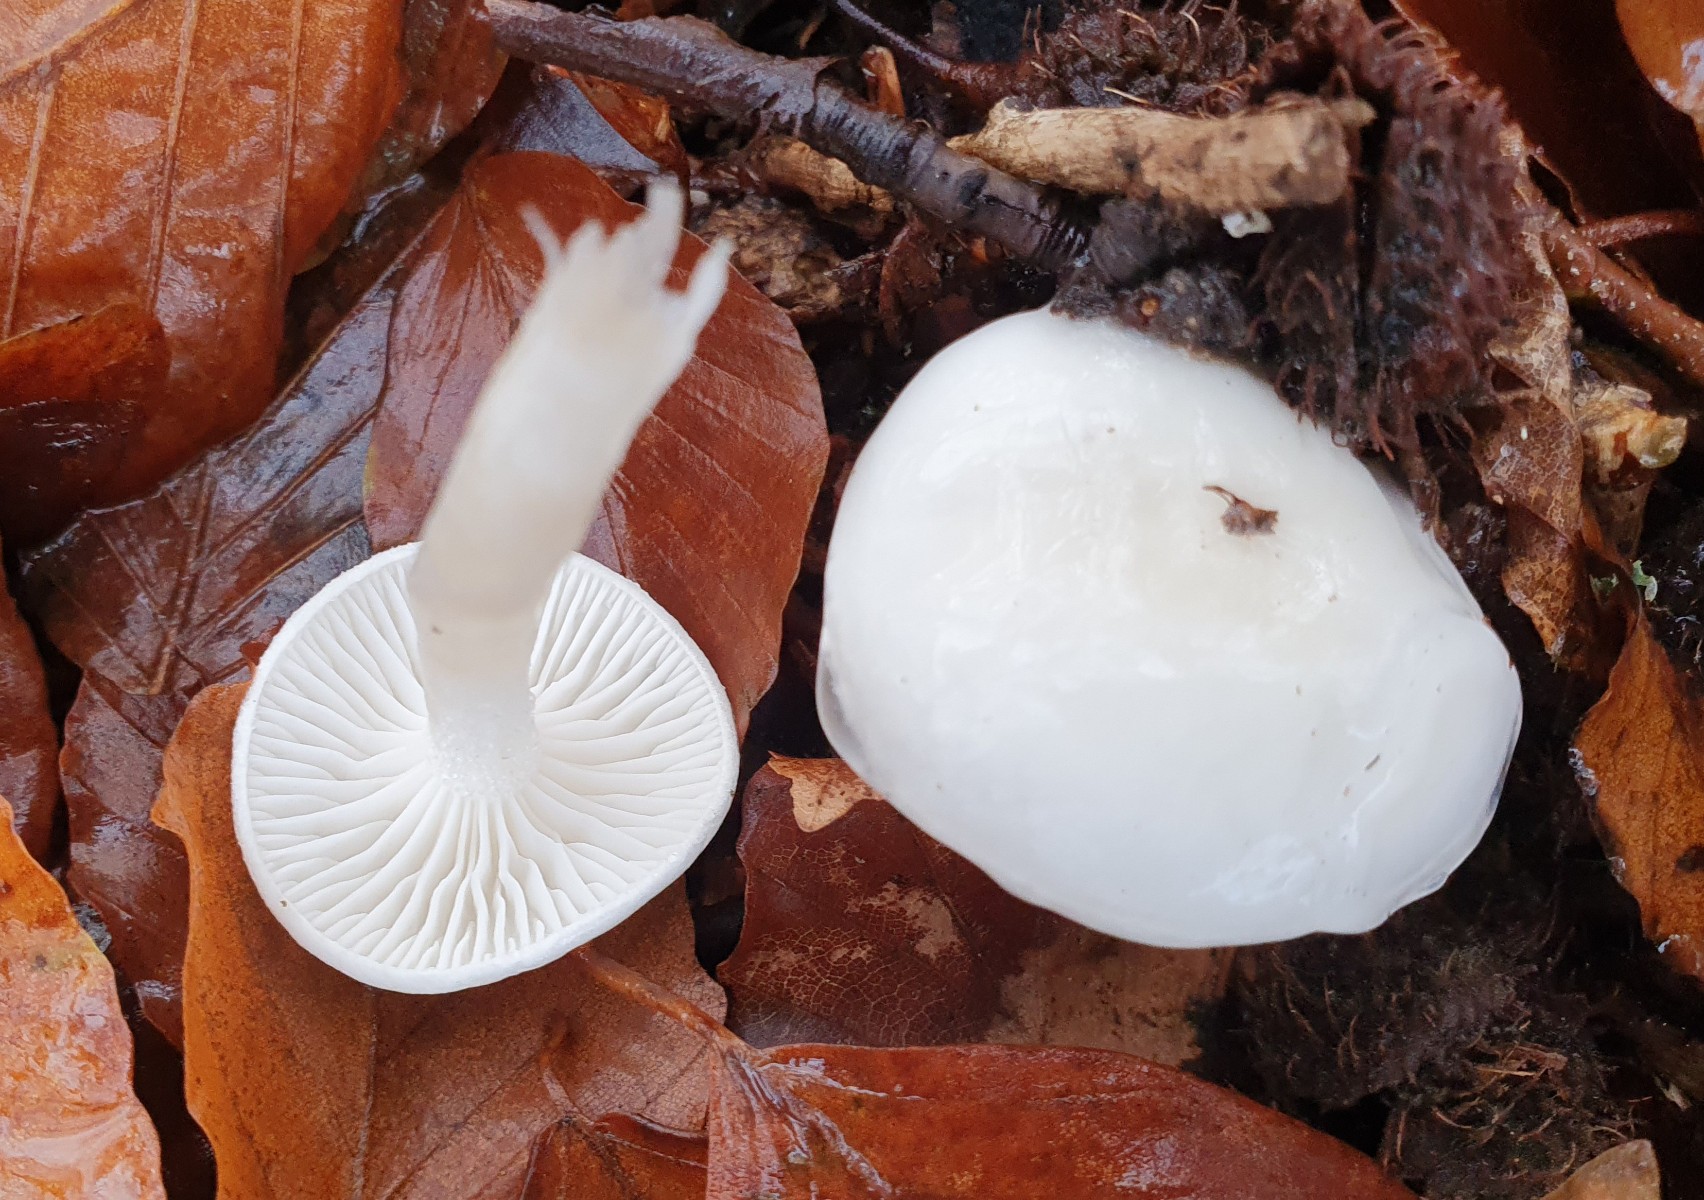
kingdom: Fungi
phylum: Basidiomycota
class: Agaricomycetes
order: Agaricales
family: Hygrophoraceae
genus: Hygrophorus
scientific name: Hygrophorus eburneus
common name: elfenbens-sneglehat
